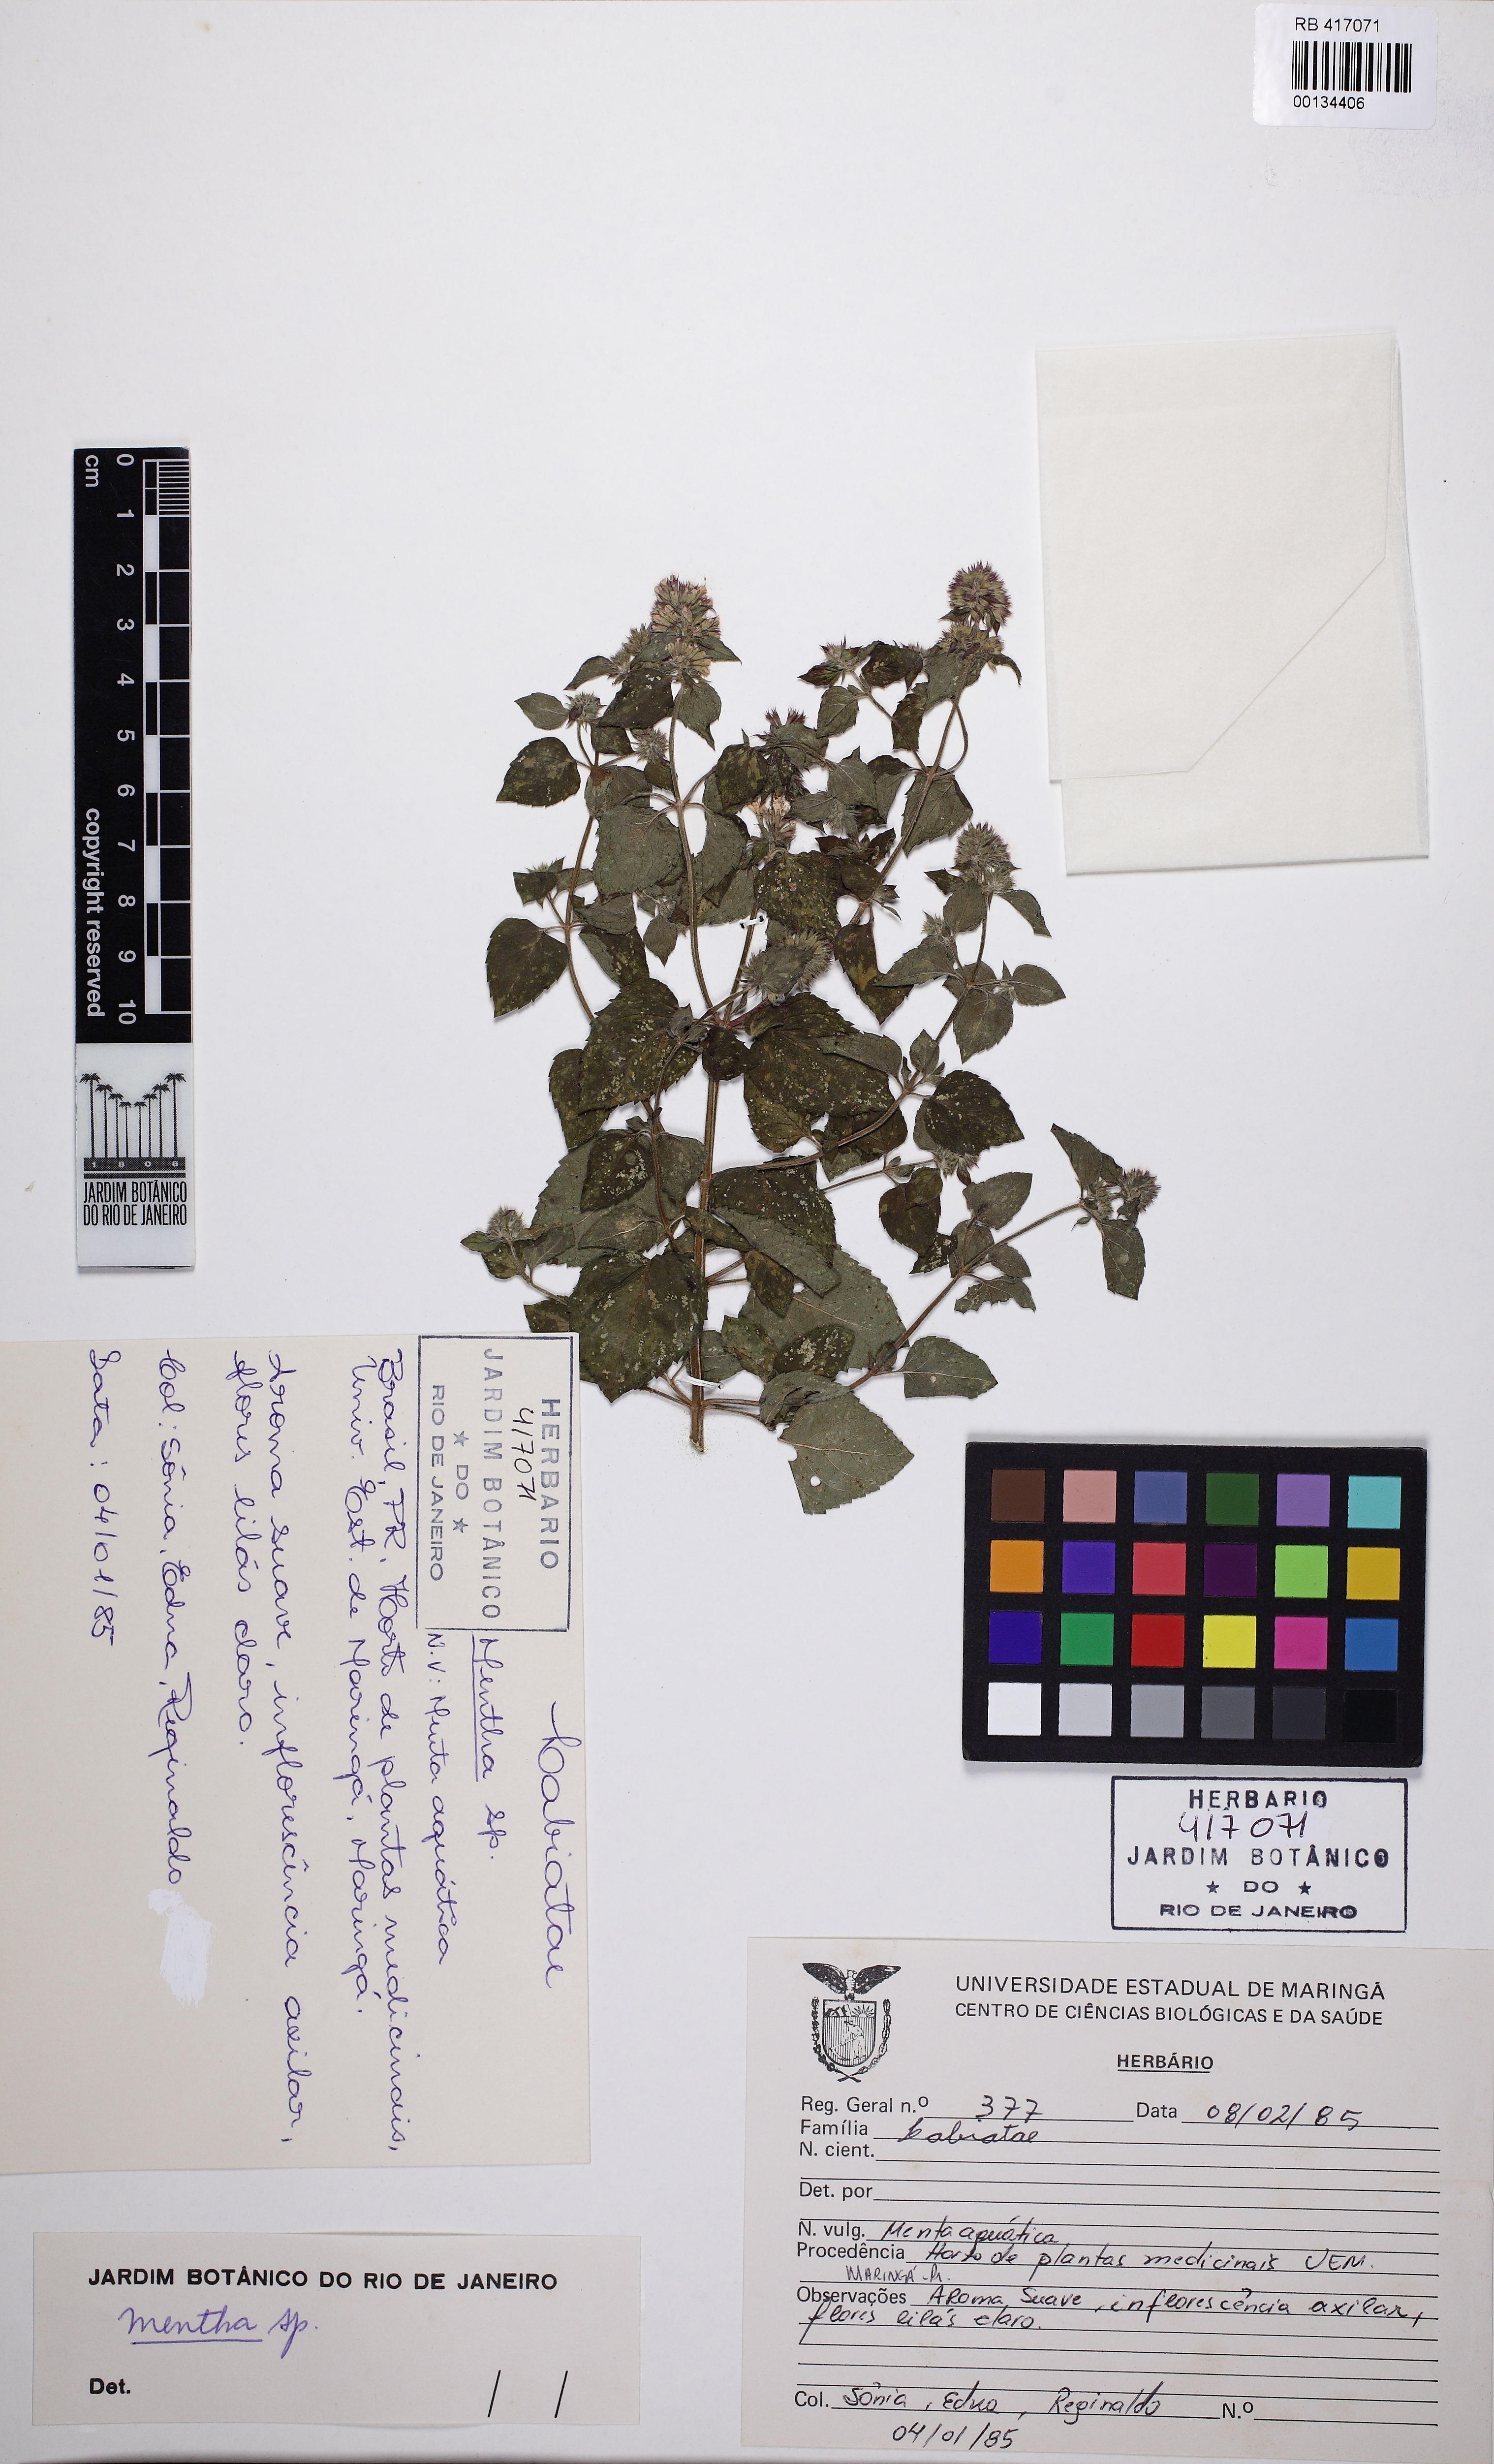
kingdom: Plantae
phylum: Tracheophyta
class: Magnoliopsida
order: Lamiales
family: Lamiaceae
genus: Mentha
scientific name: Mentha
